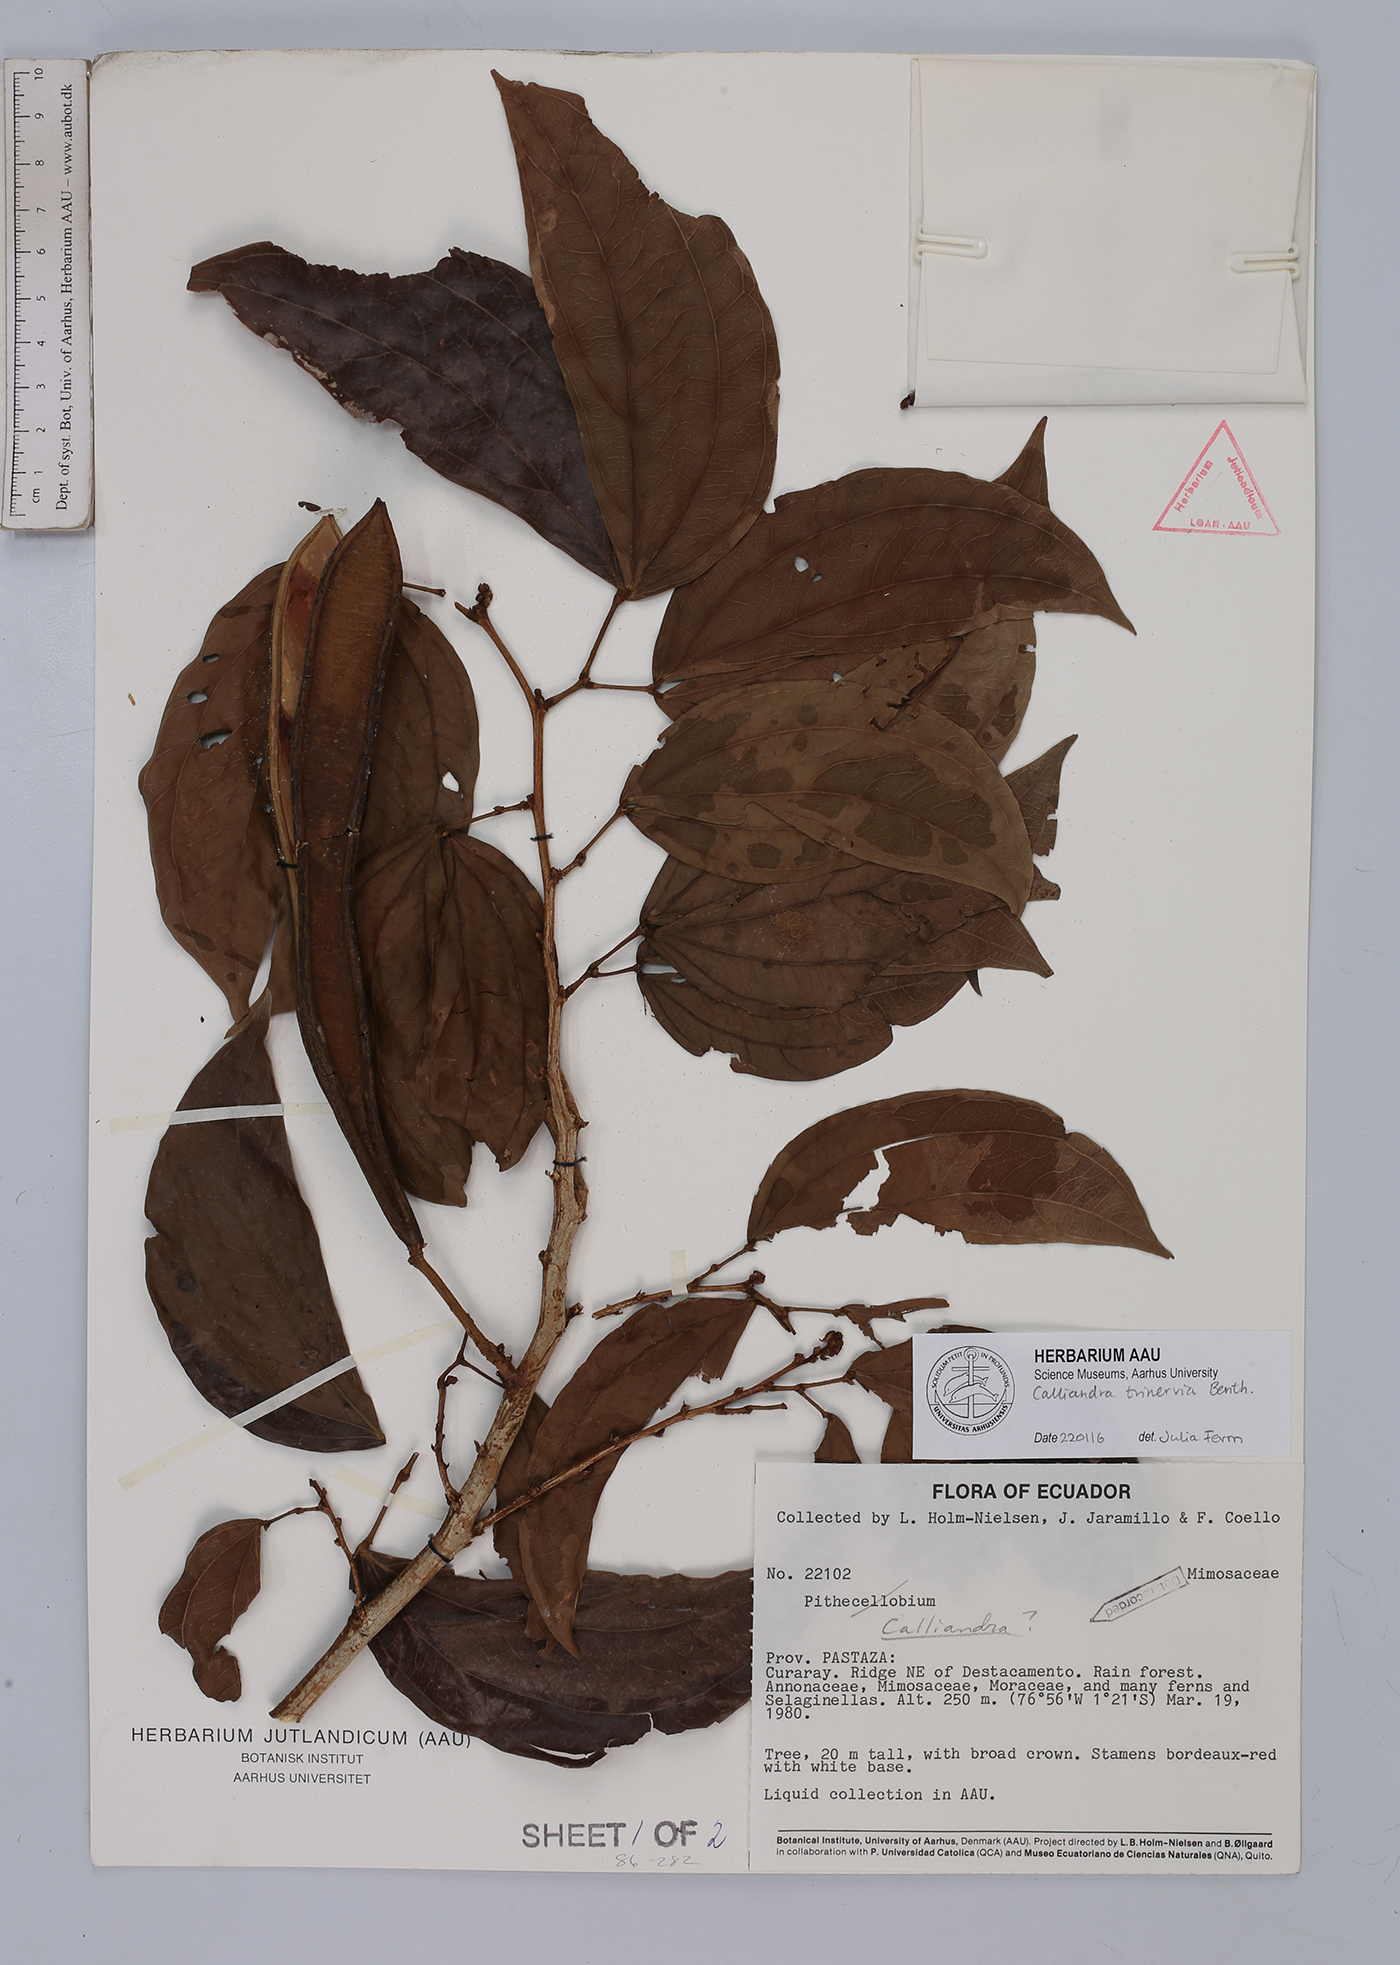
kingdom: Plantae
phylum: Tracheophyta
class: Magnoliopsida
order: Fabales
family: Fabaceae
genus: Calliandra
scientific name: Calliandra trinervia
